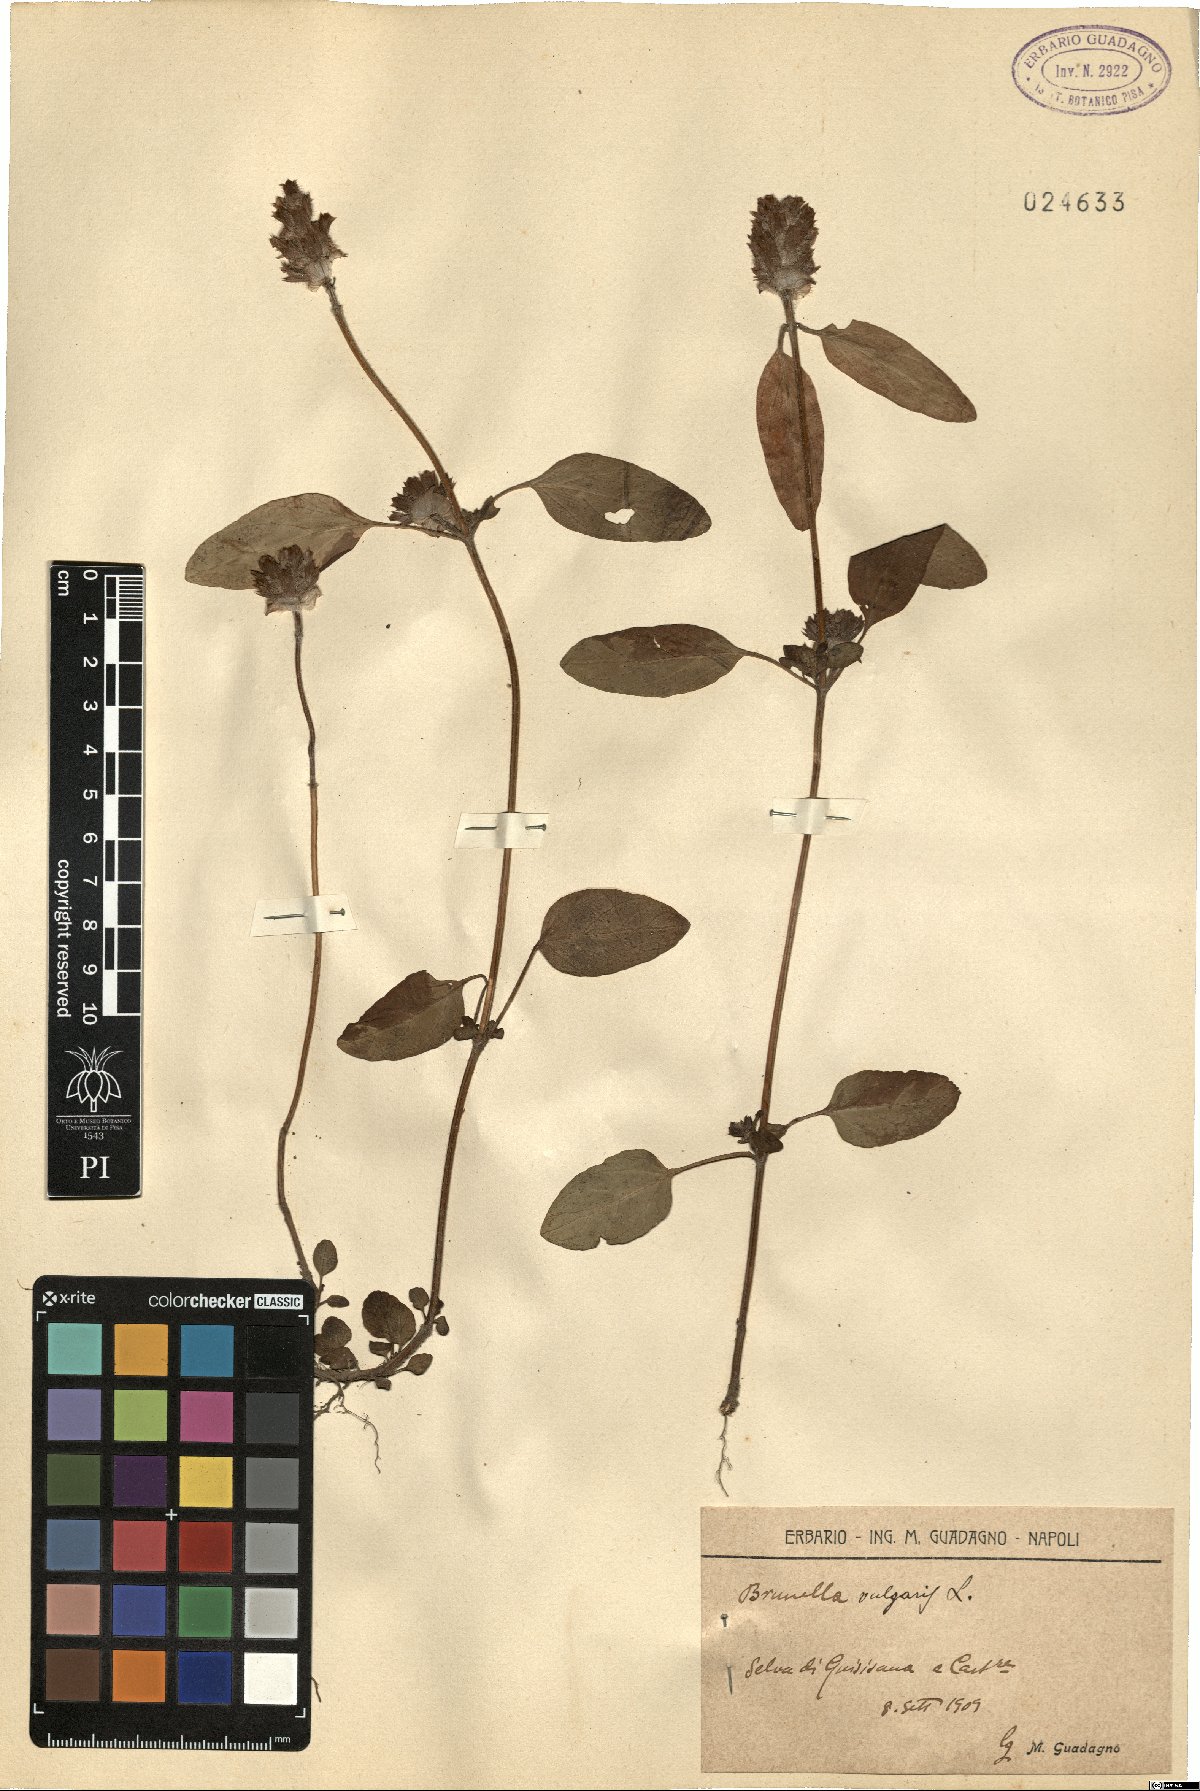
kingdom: Plantae
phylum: Tracheophyta
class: Magnoliopsida
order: Lamiales
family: Lamiaceae
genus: Prunella
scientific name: Prunella vulgaris
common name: Heal-all
